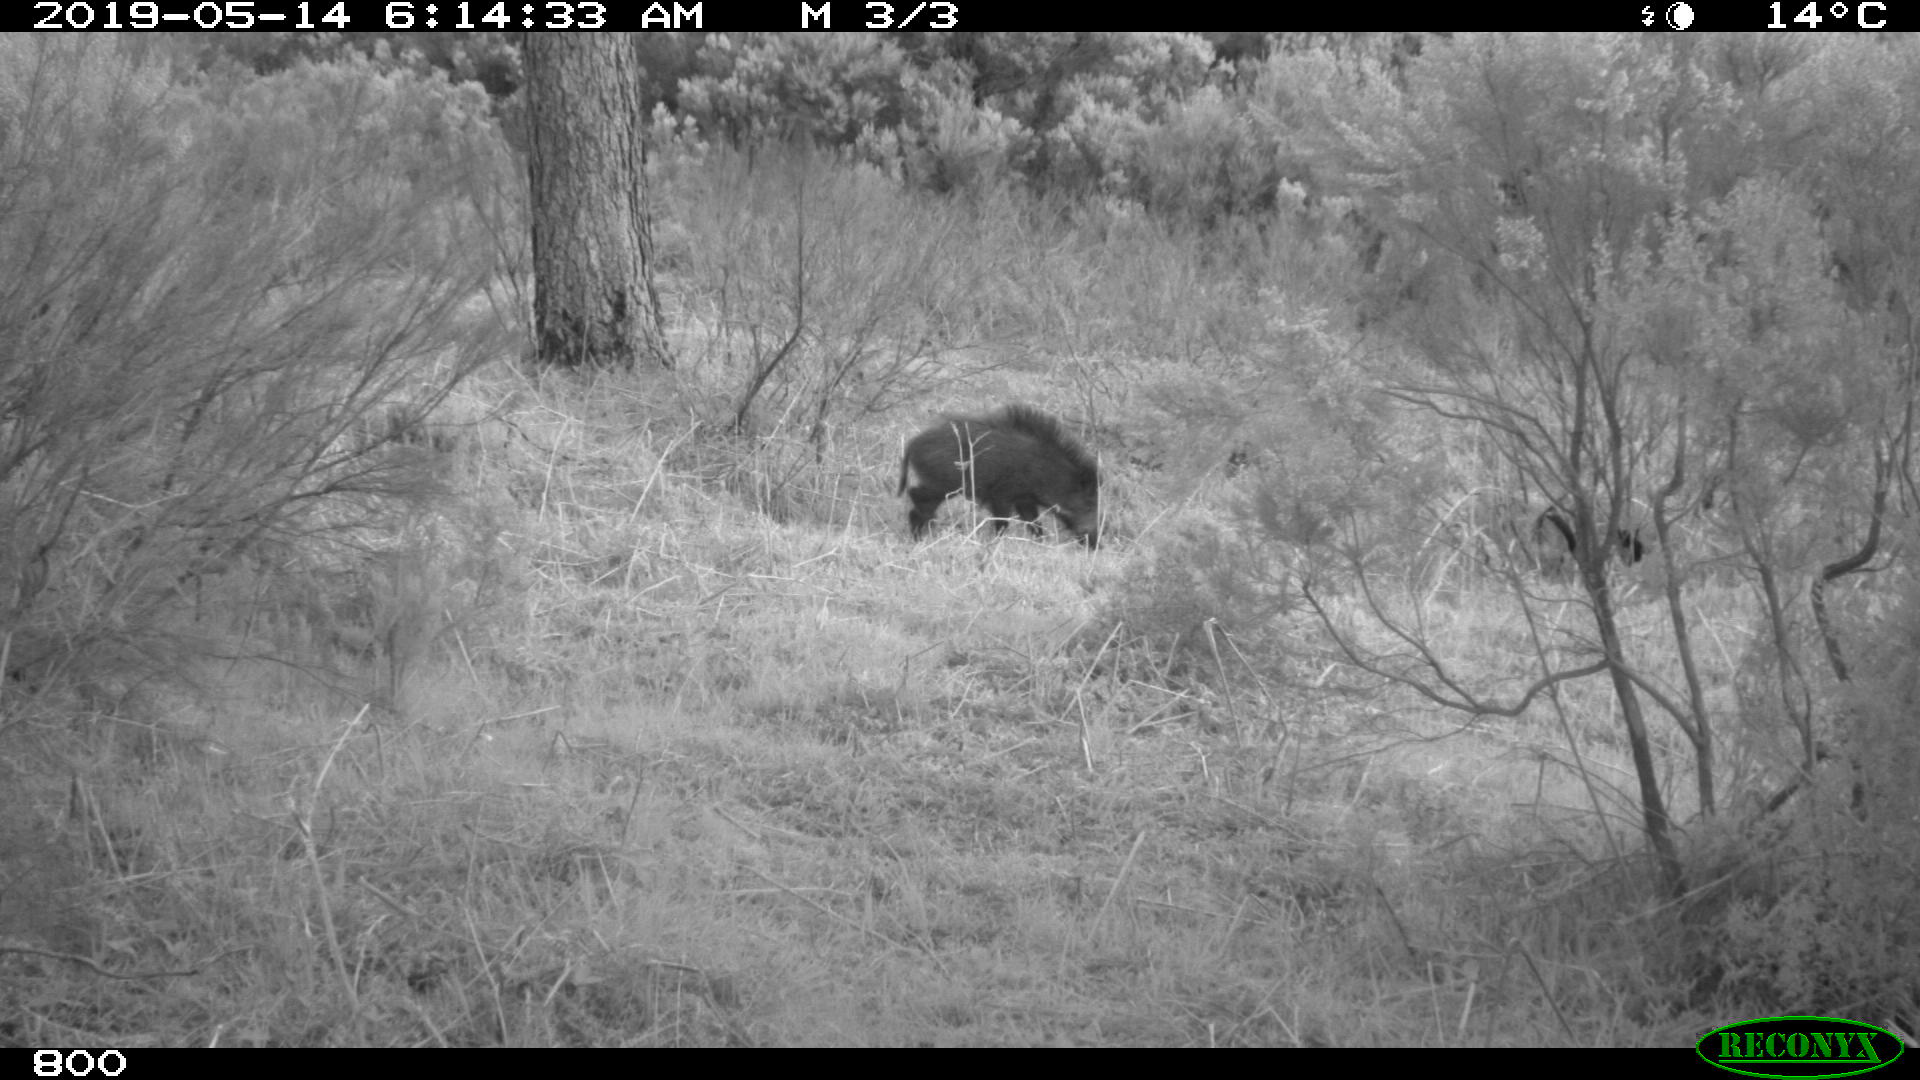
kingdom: Animalia
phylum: Chordata
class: Mammalia
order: Artiodactyla
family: Suidae
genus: Sus
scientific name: Sus scrofa
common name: Wild boar
